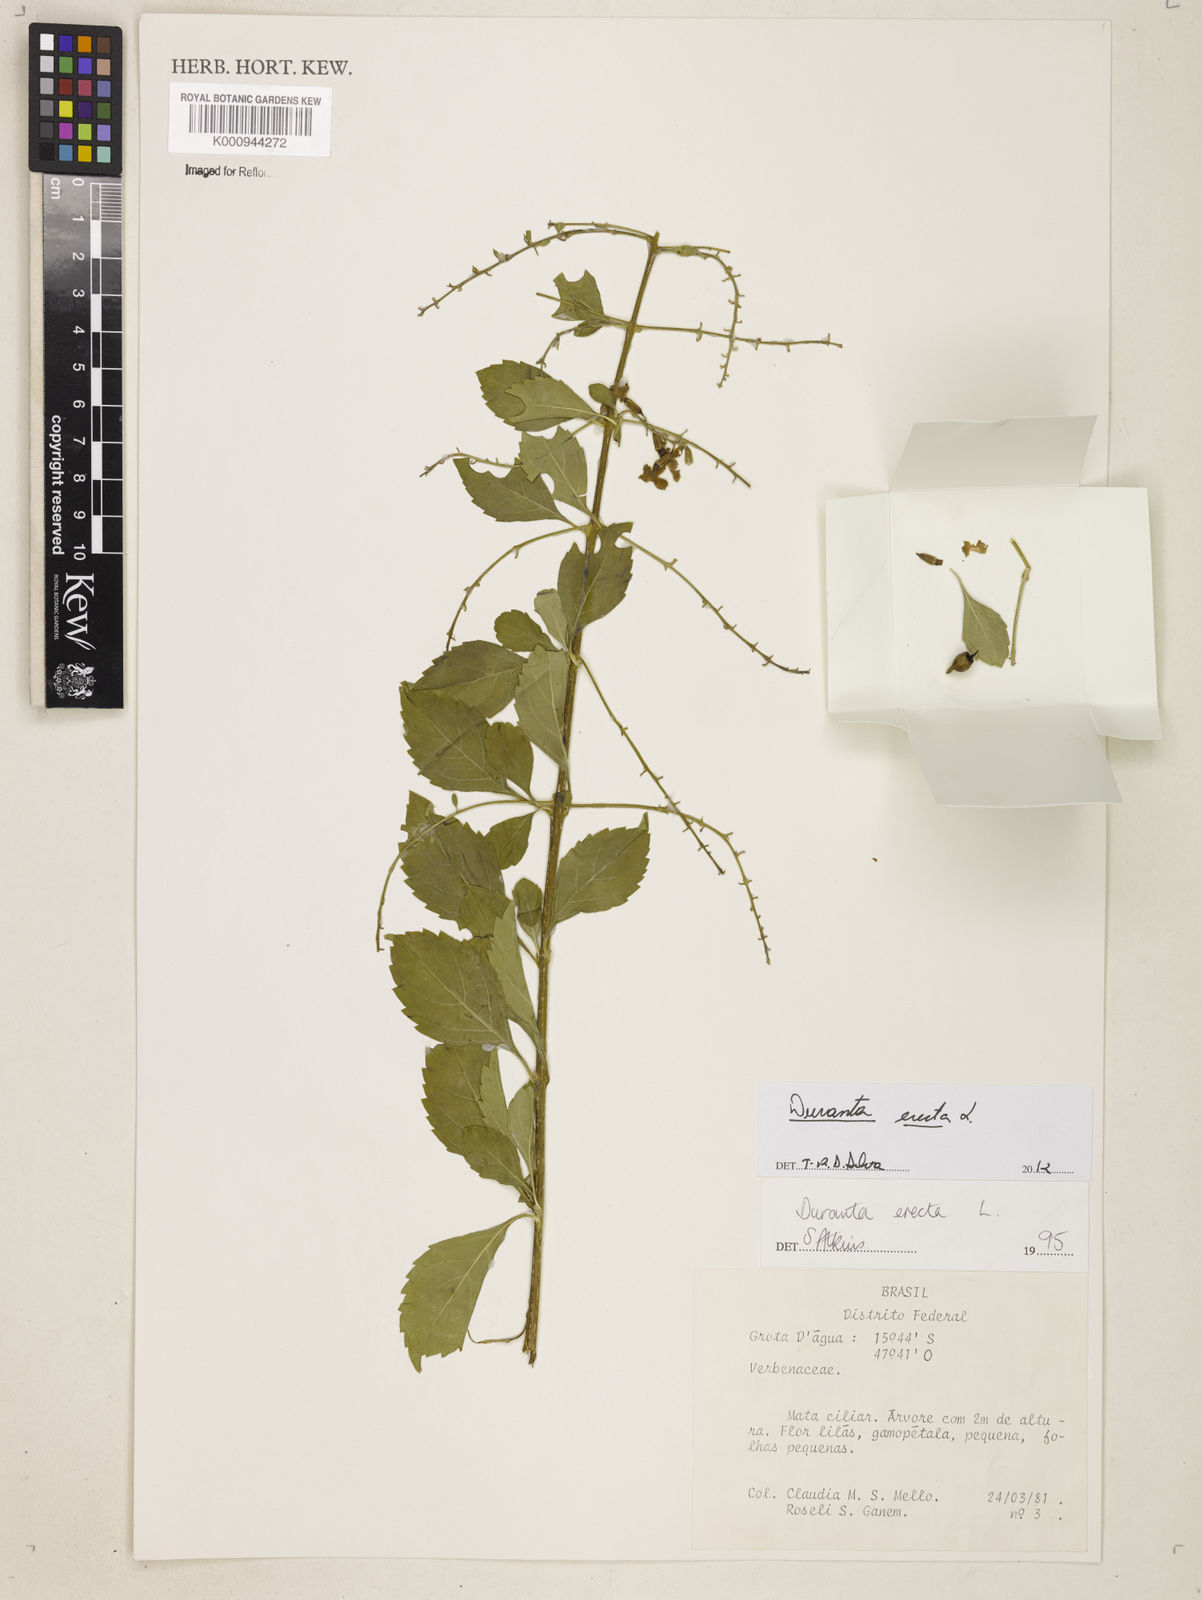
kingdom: Plantae
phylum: Tracheophyta
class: Magnoliopsida
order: Lamiales
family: Verbenaceae
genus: Citharexylum
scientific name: Citharexylum caudatum
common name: Fiddlewood
